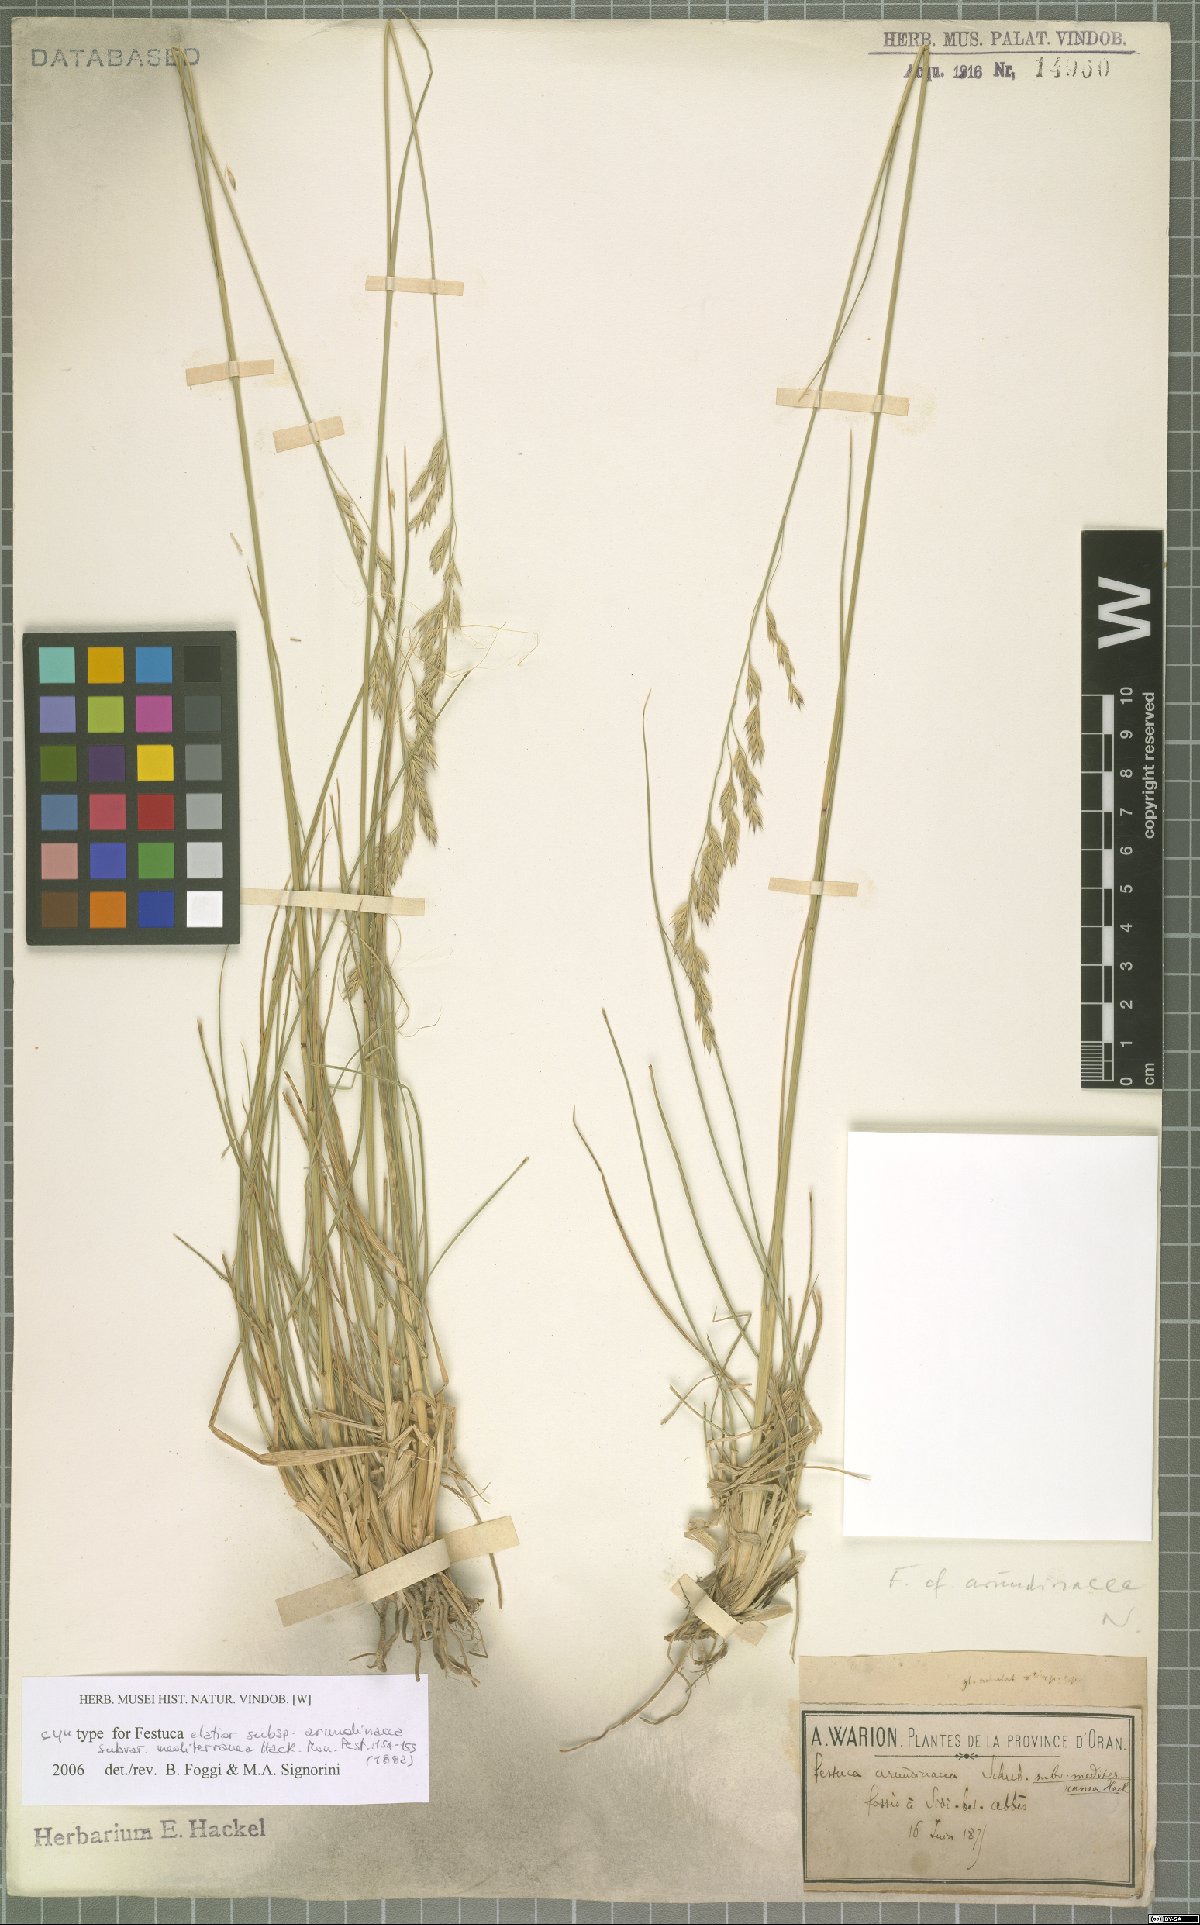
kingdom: Plantae
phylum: Tracheophyta
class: Liliopsida
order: Poales
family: Poaceae
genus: Lolium
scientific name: Lolium mediterraneum
